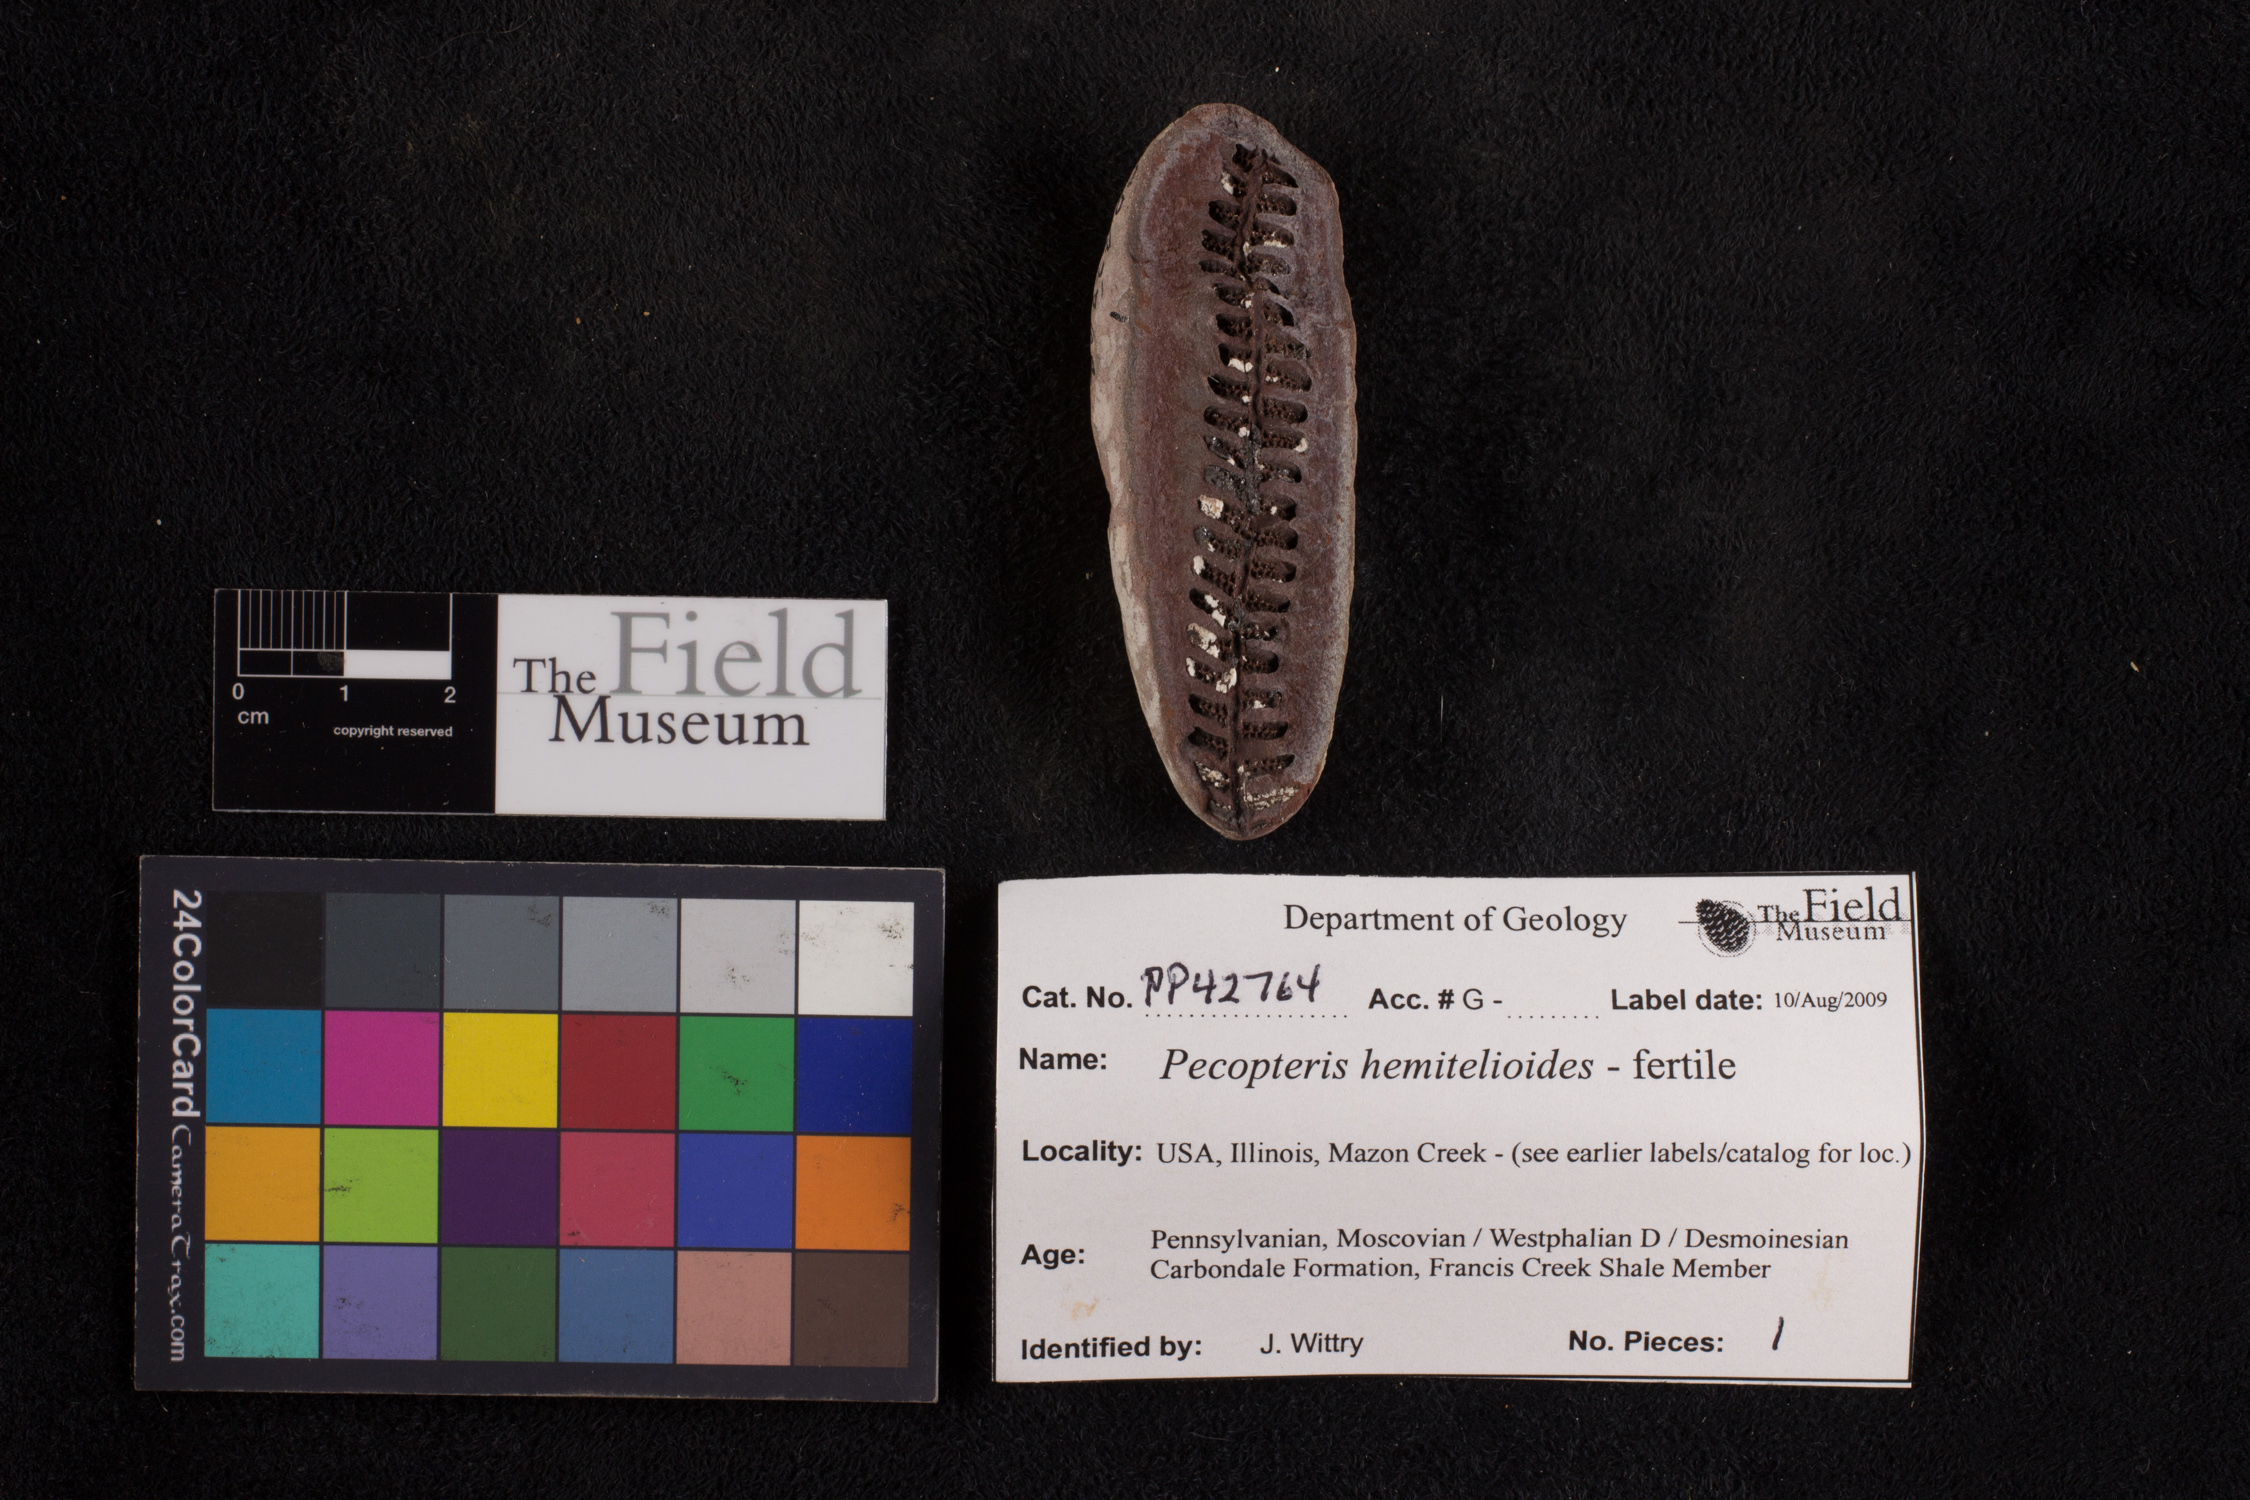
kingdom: Plantae
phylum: Tracheophyta
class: Polypodiopsida
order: Marattiales
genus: Cyathocarpus
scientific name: Cyathocarpus
